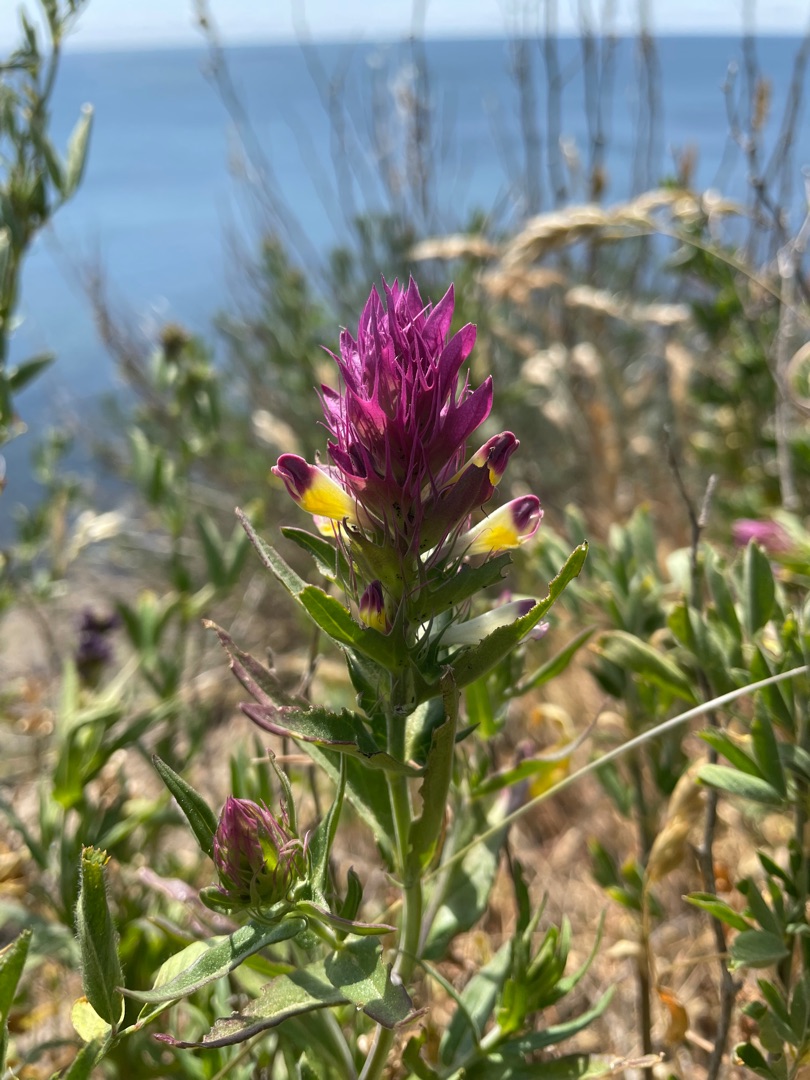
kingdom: Plantae
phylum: Tracheophyta
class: Magnoliopsida
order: Lamiales
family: Orobanchaceae
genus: Melampyrum
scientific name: Melampyrum arvense
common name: Ager-kohvede
